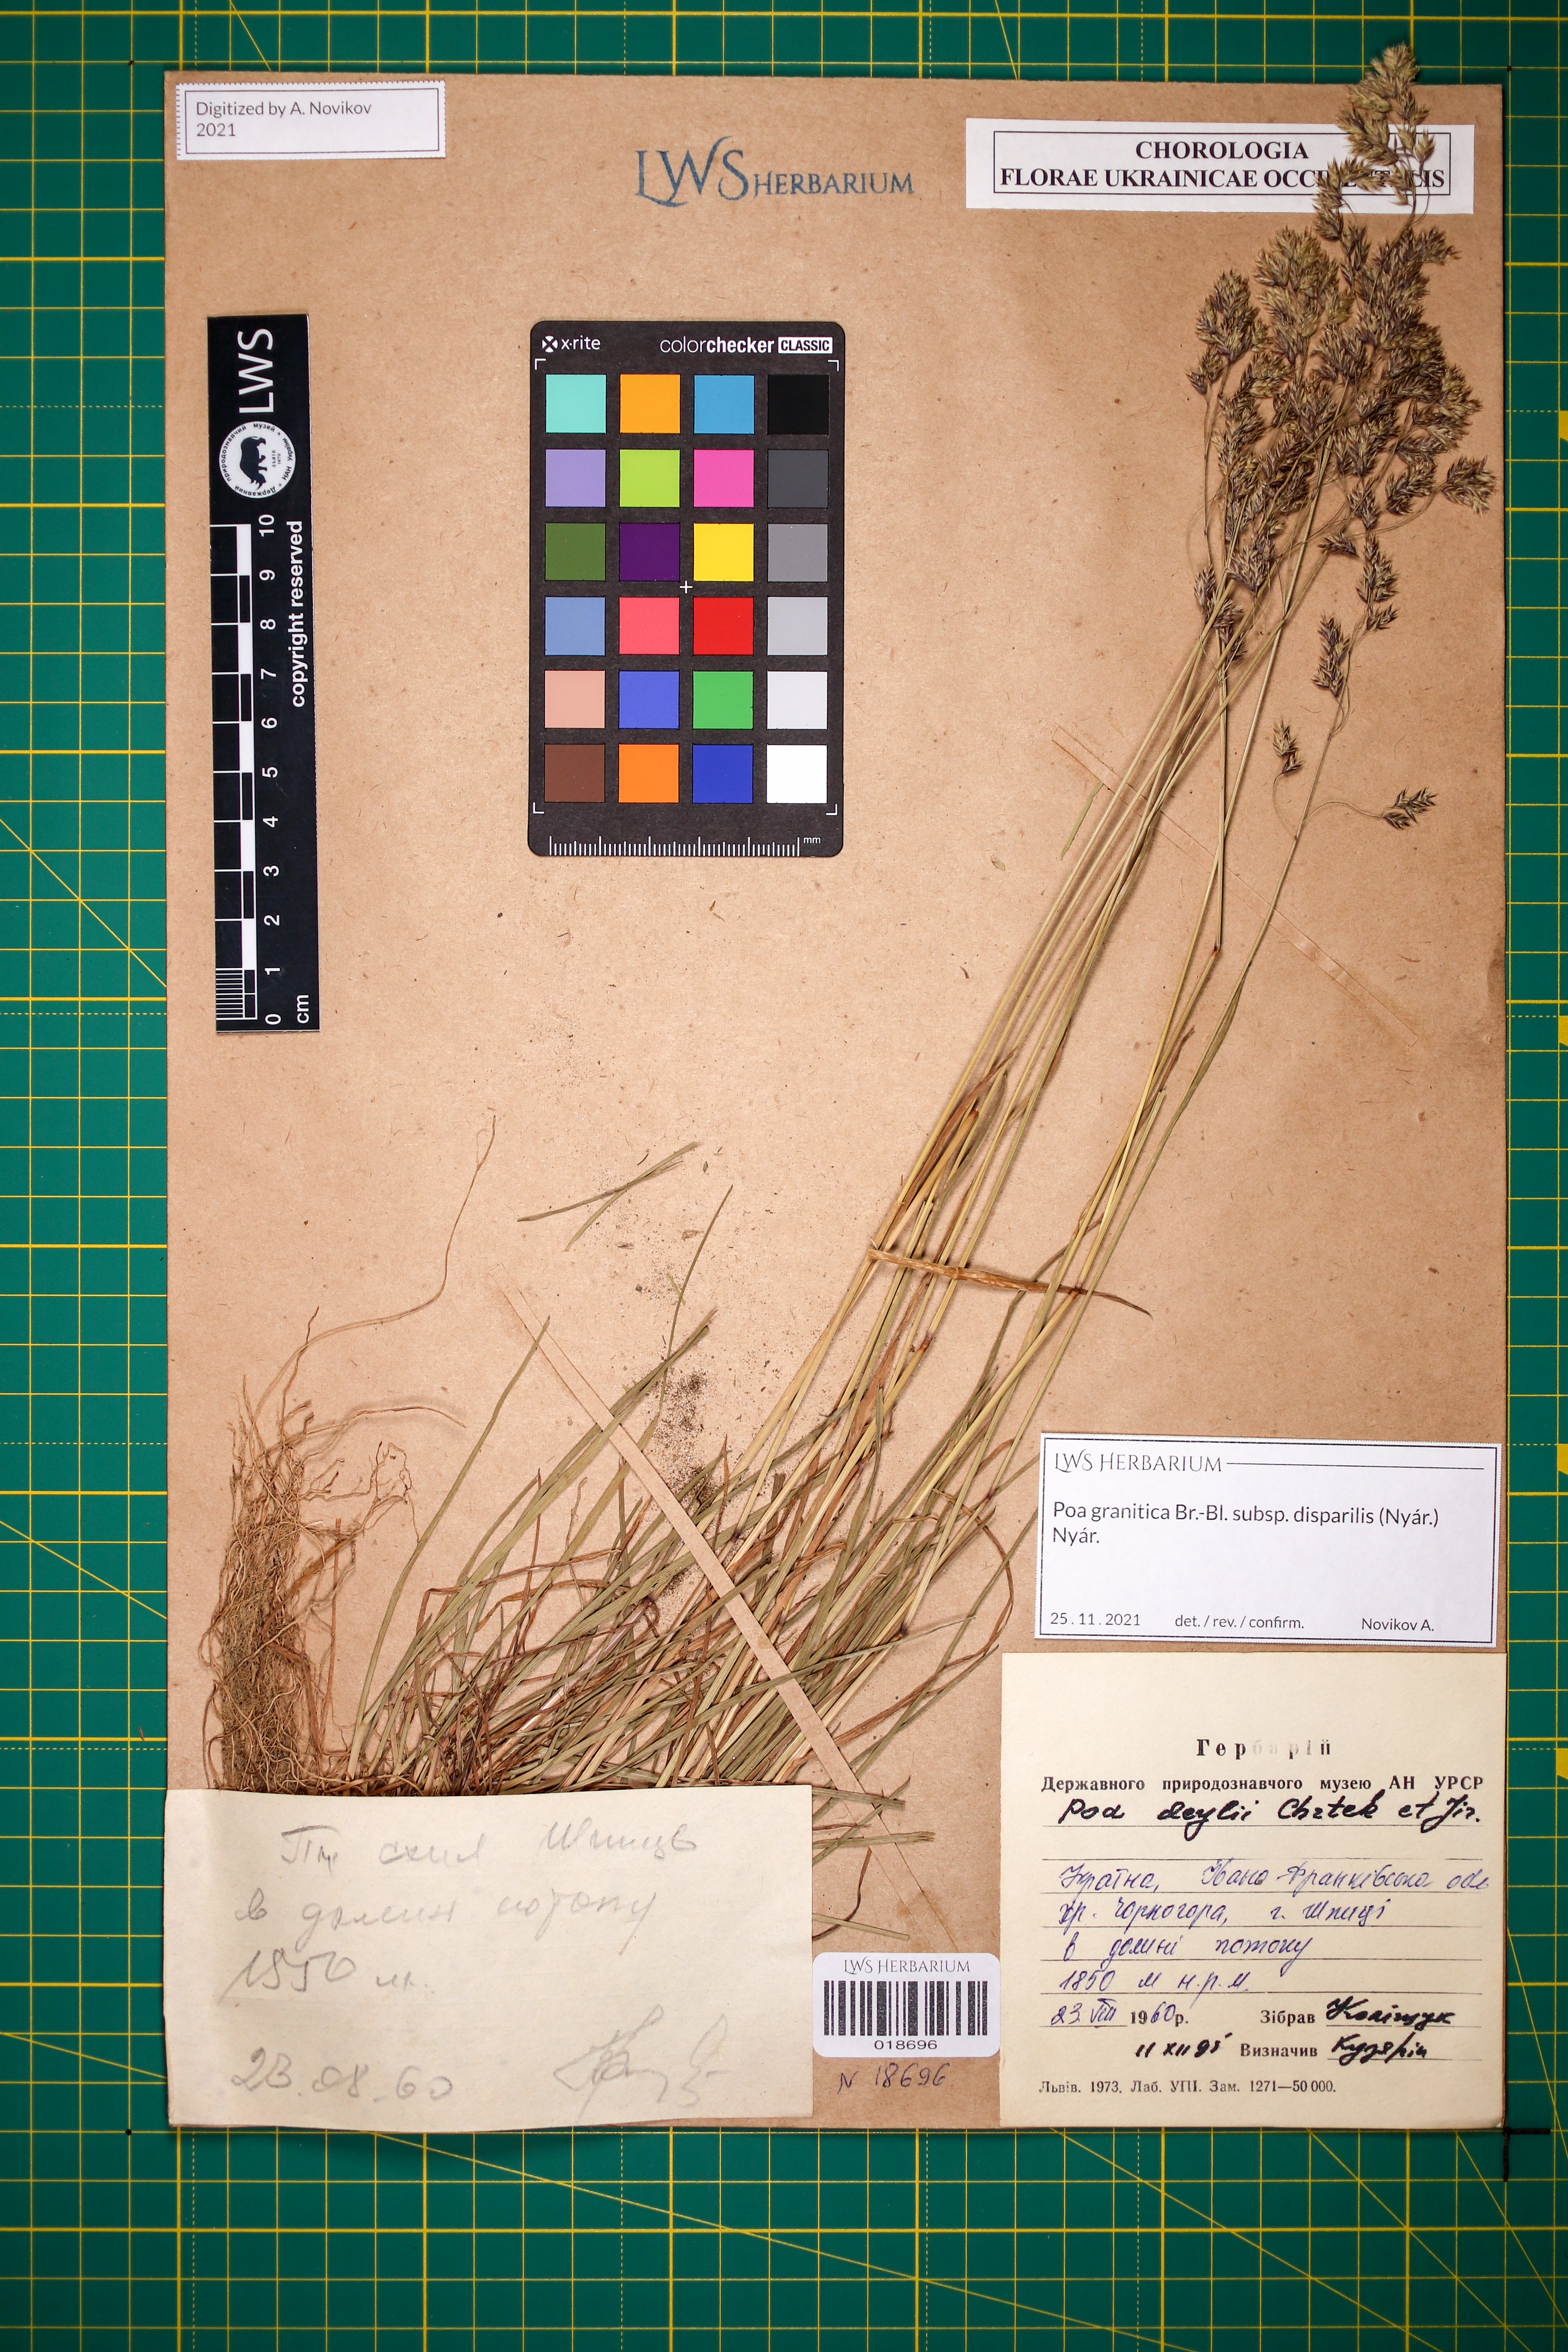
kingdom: Plantae
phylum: Tracheophyta
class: Liliopsida
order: Poales
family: Poaceae
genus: Poa
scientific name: Poa granitica
